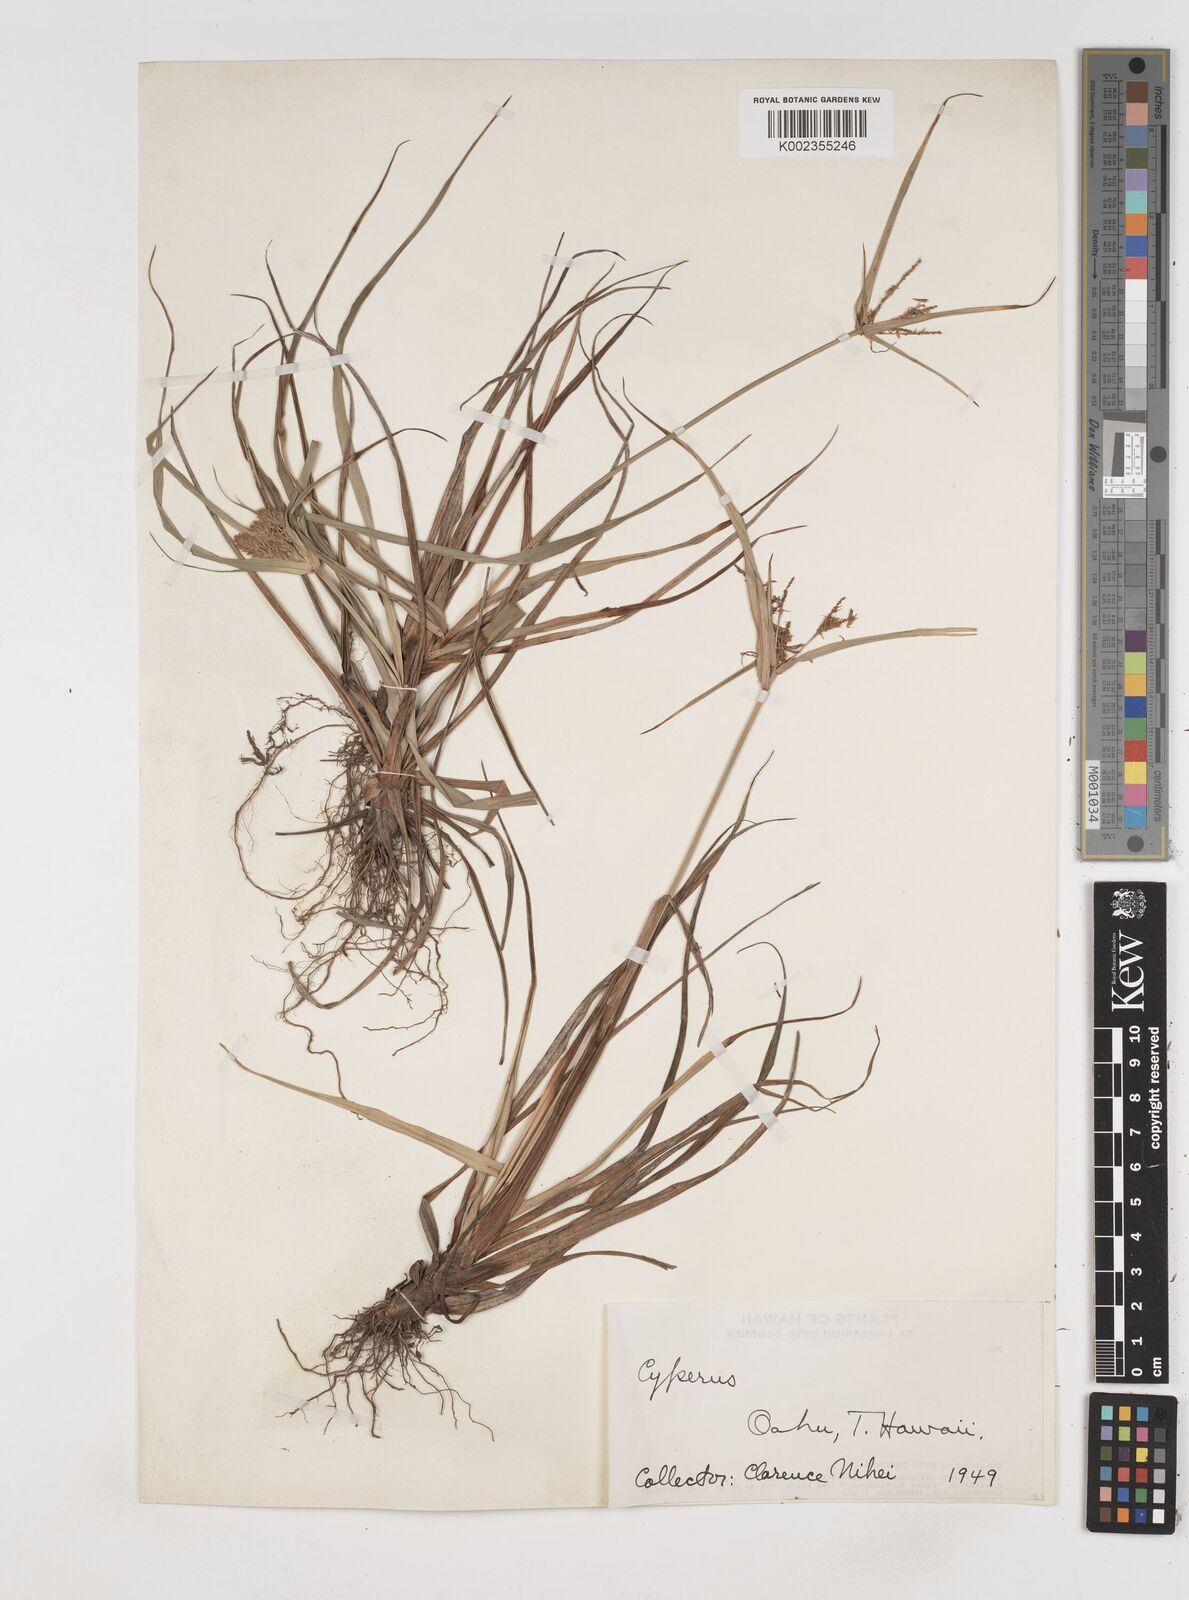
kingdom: Plantae
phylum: Tracheophyta
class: Liliopsida
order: Poales
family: Cyperaceae
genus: Cyperus
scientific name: Cyperus
